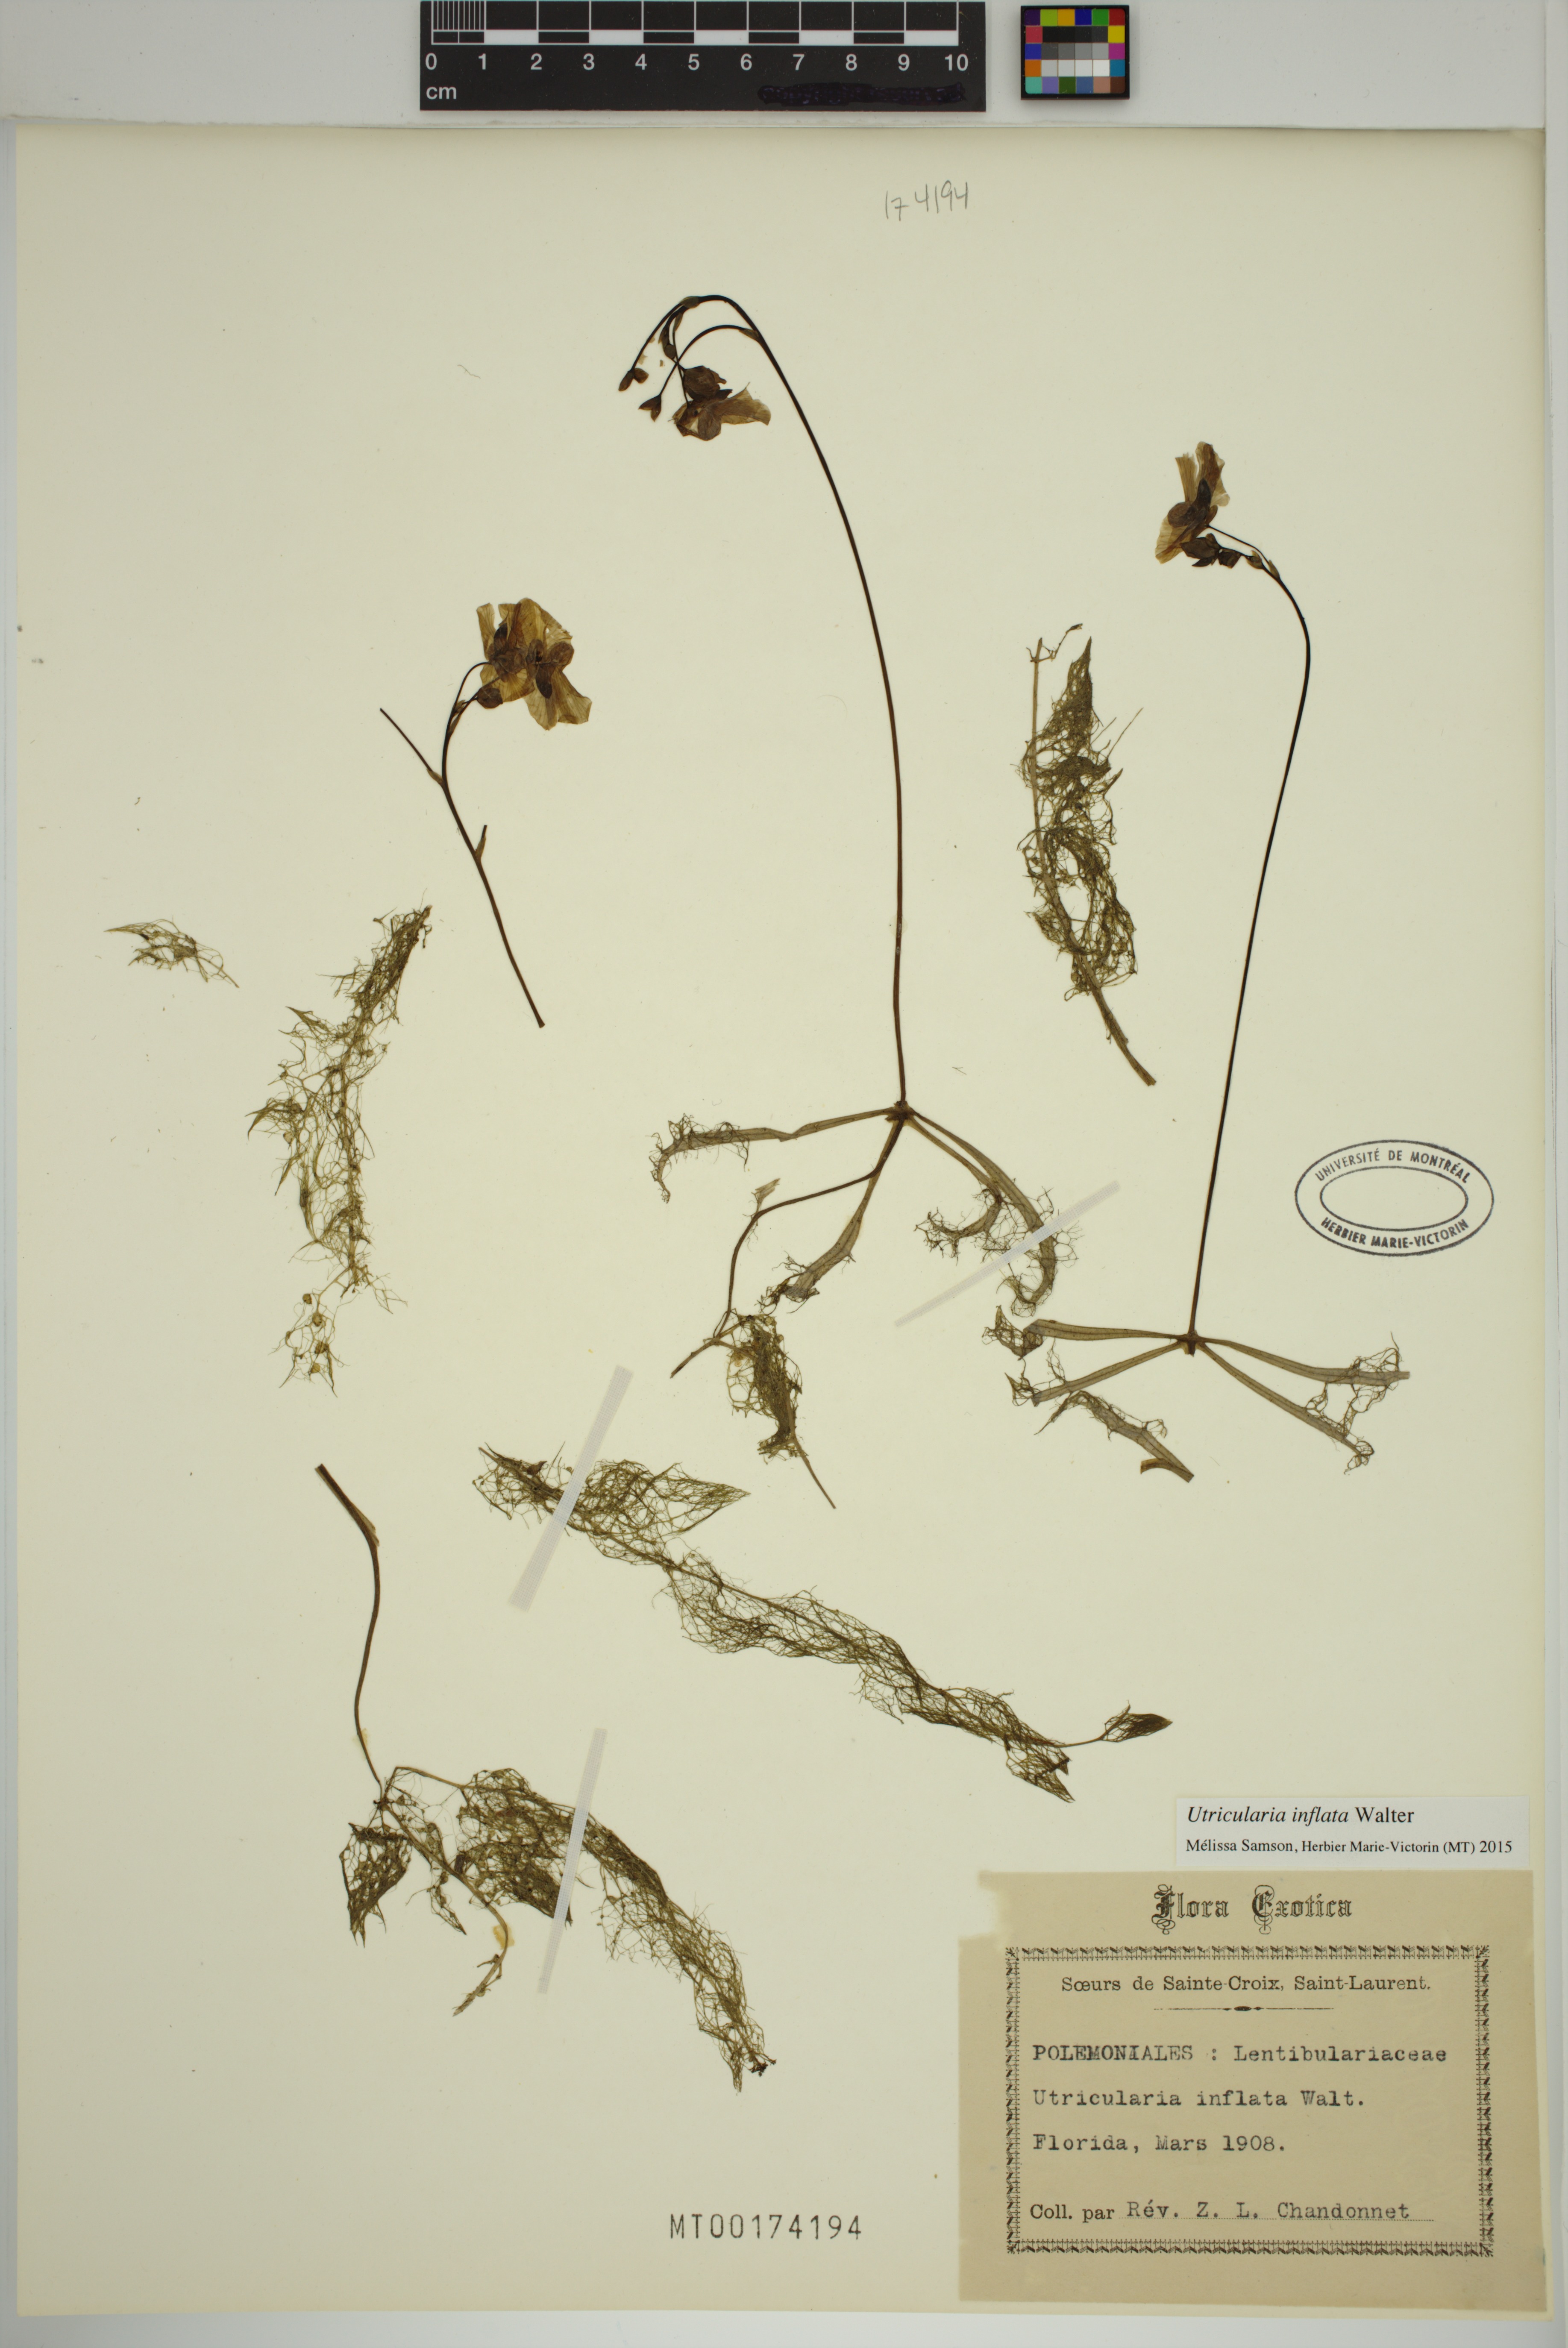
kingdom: Plantae
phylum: Tracheophyta
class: Magnoliopsida
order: Lamiales
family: Lentibulariaceae
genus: Utricularia
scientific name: Utricularia inflata
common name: Floating bladderwort
